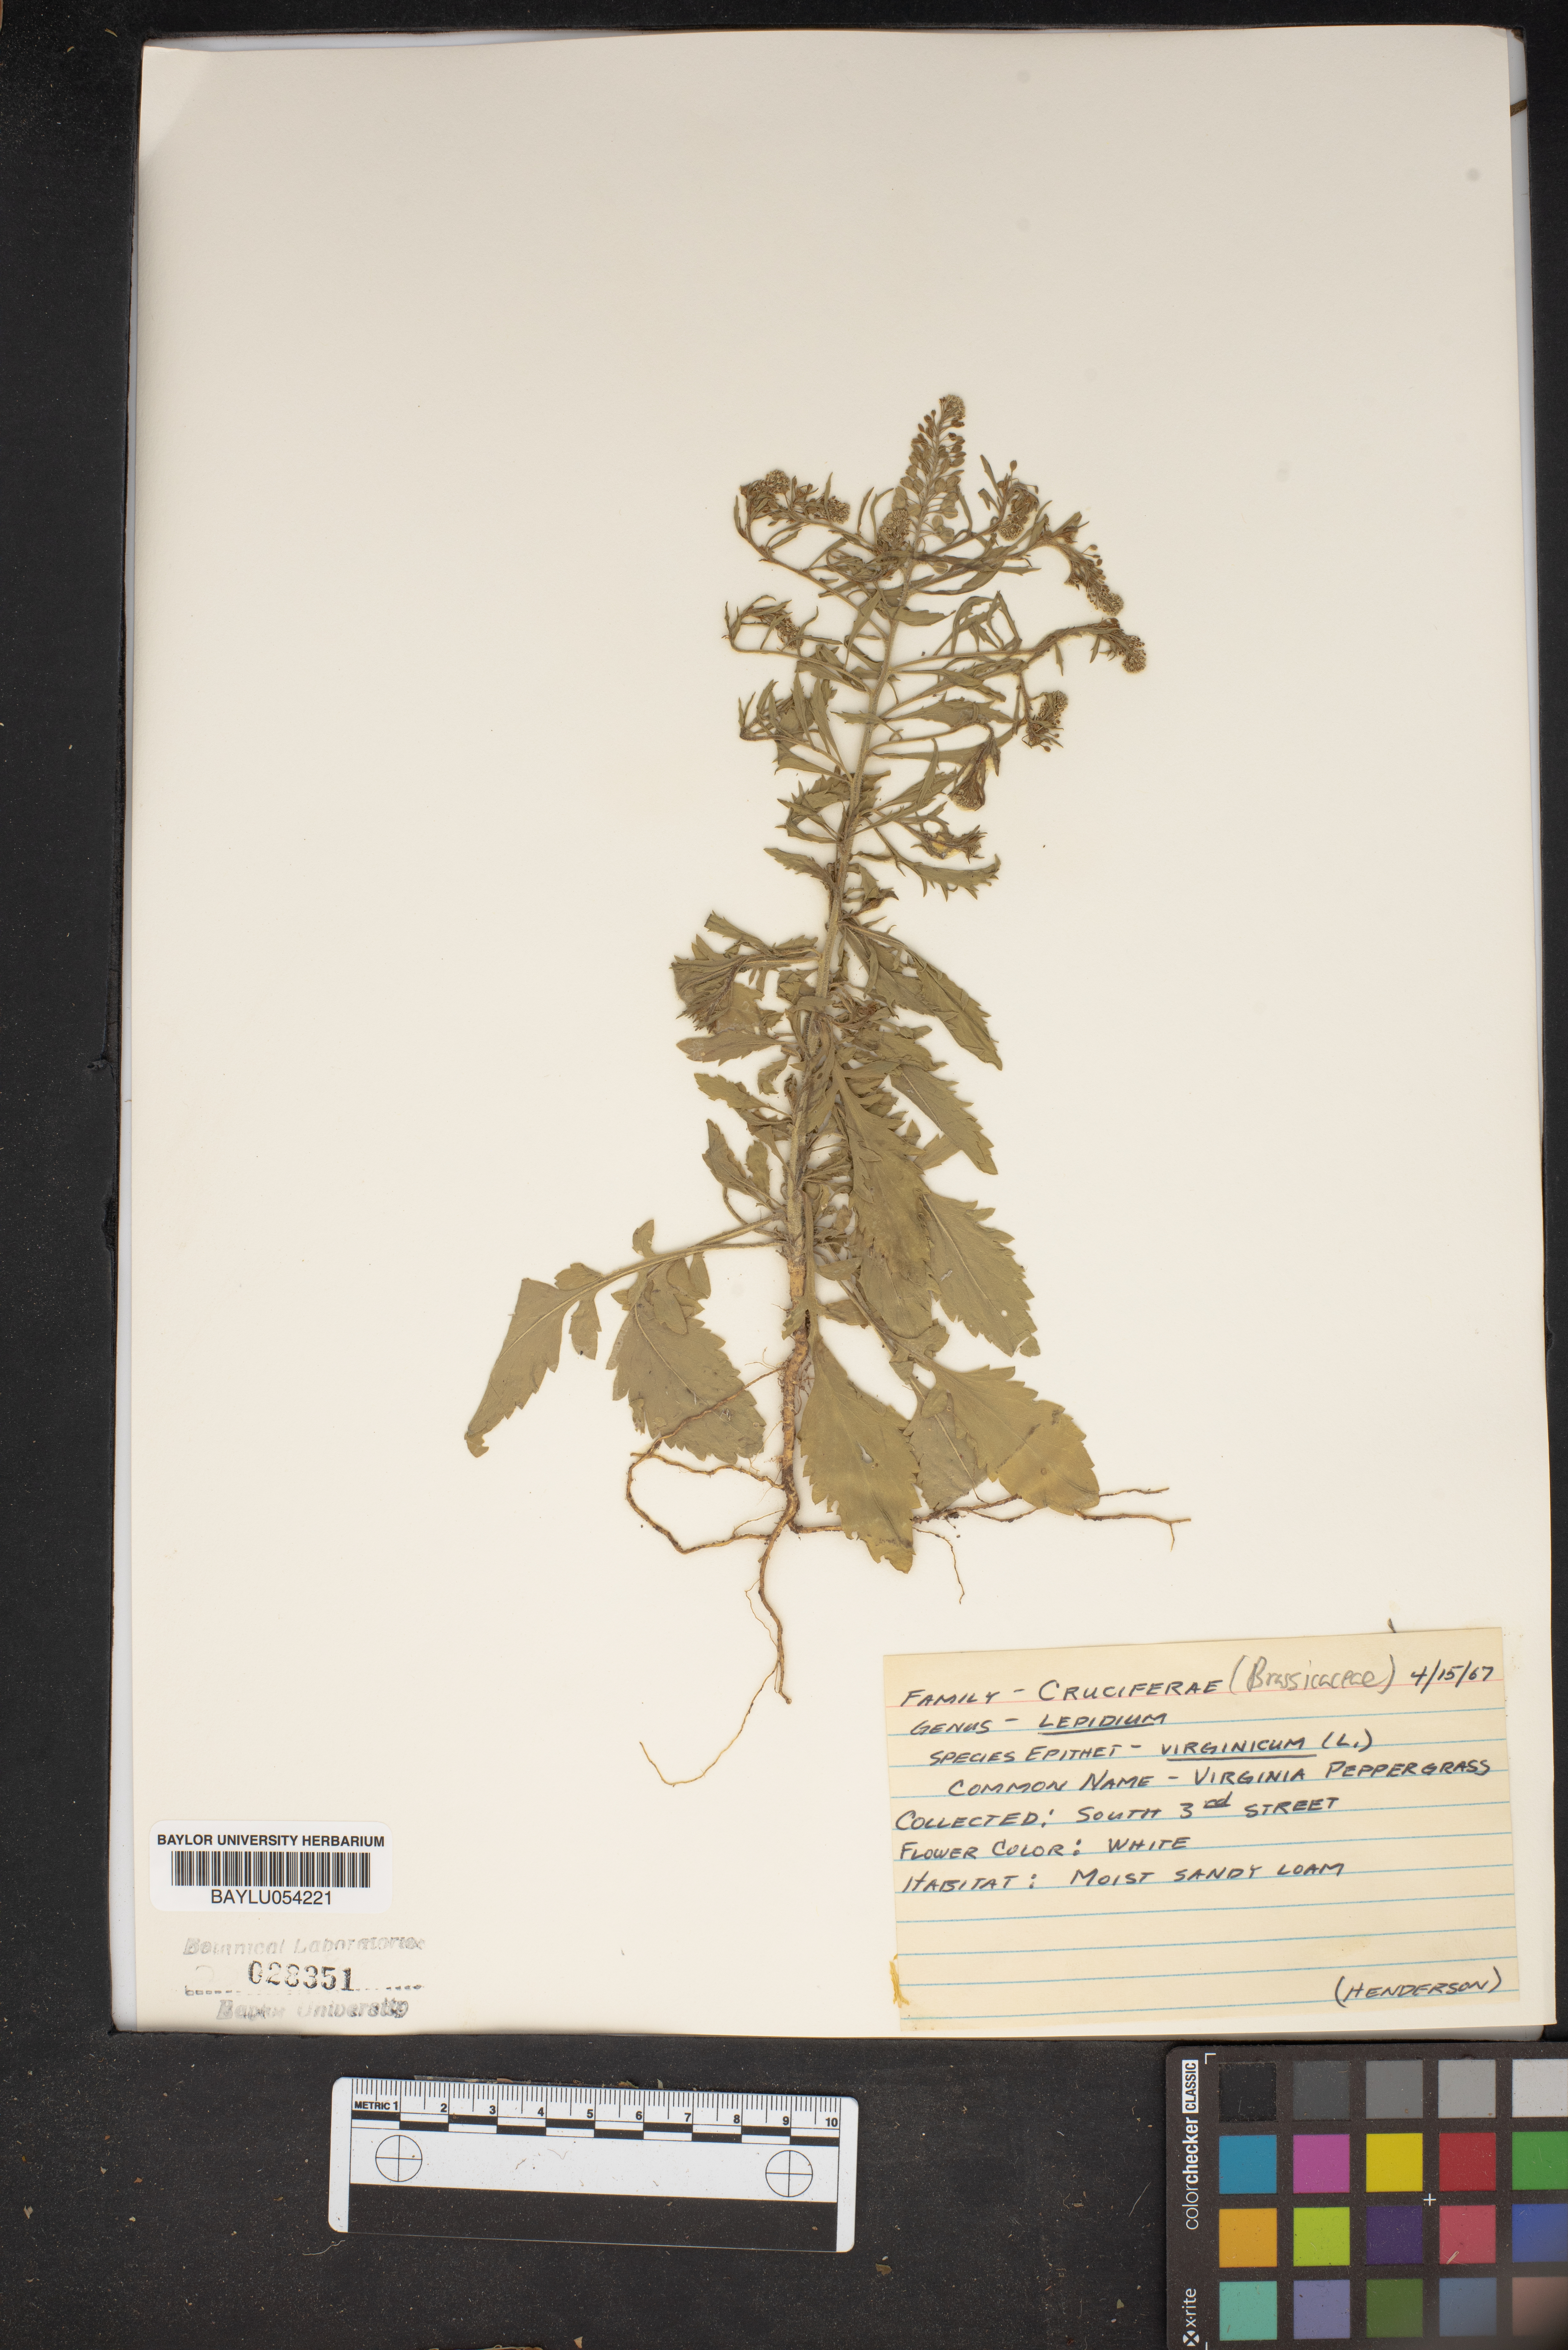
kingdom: Plantae
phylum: Tracheophyta
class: Magnoliopsida
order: Brassicales
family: Brassicaceae
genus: Lepidium
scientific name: Lepidium virginicum
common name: Least pepperwort
